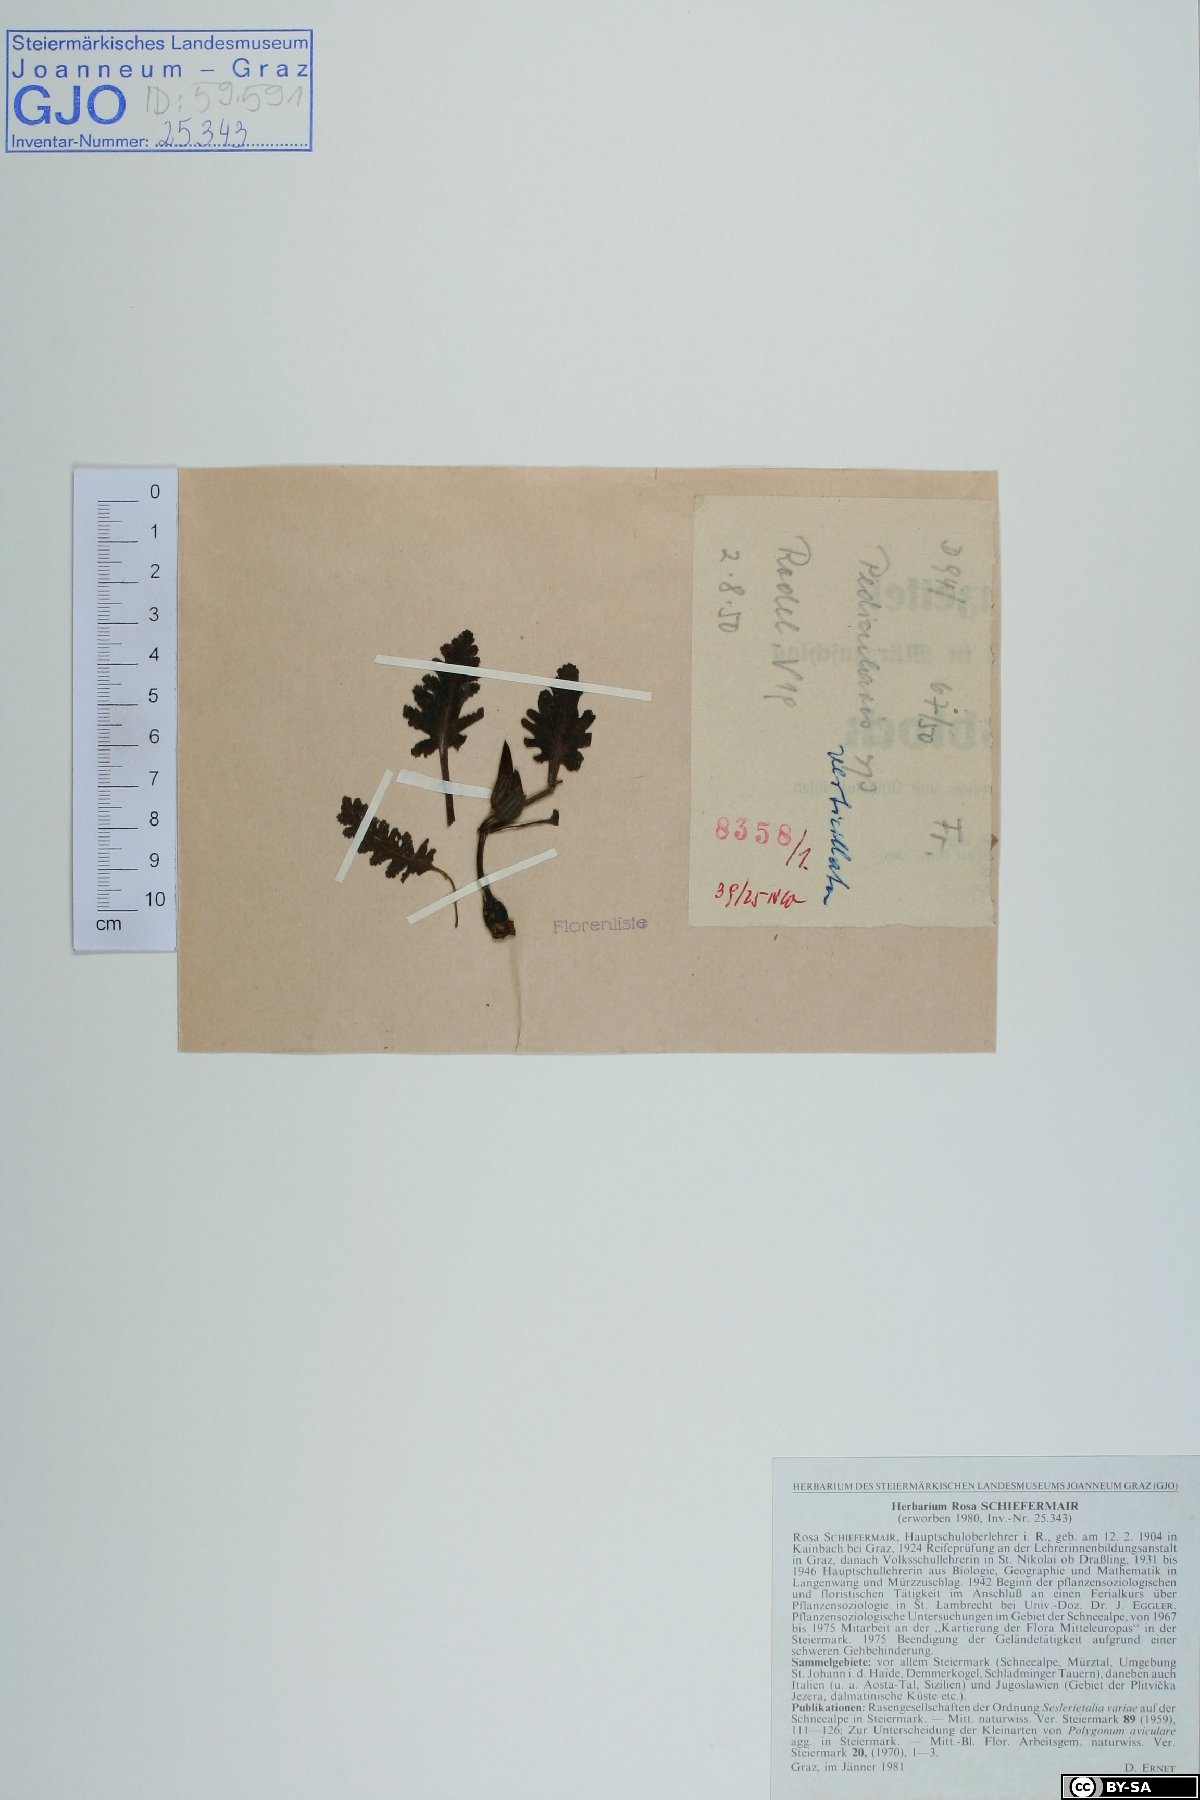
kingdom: Plantae
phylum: Tracheophyta
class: Magnoliopsida
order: Lamiales
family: Orobanchaceae
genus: Pedicularis
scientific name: Pedicularis verticillata
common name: Whorled lousewort
